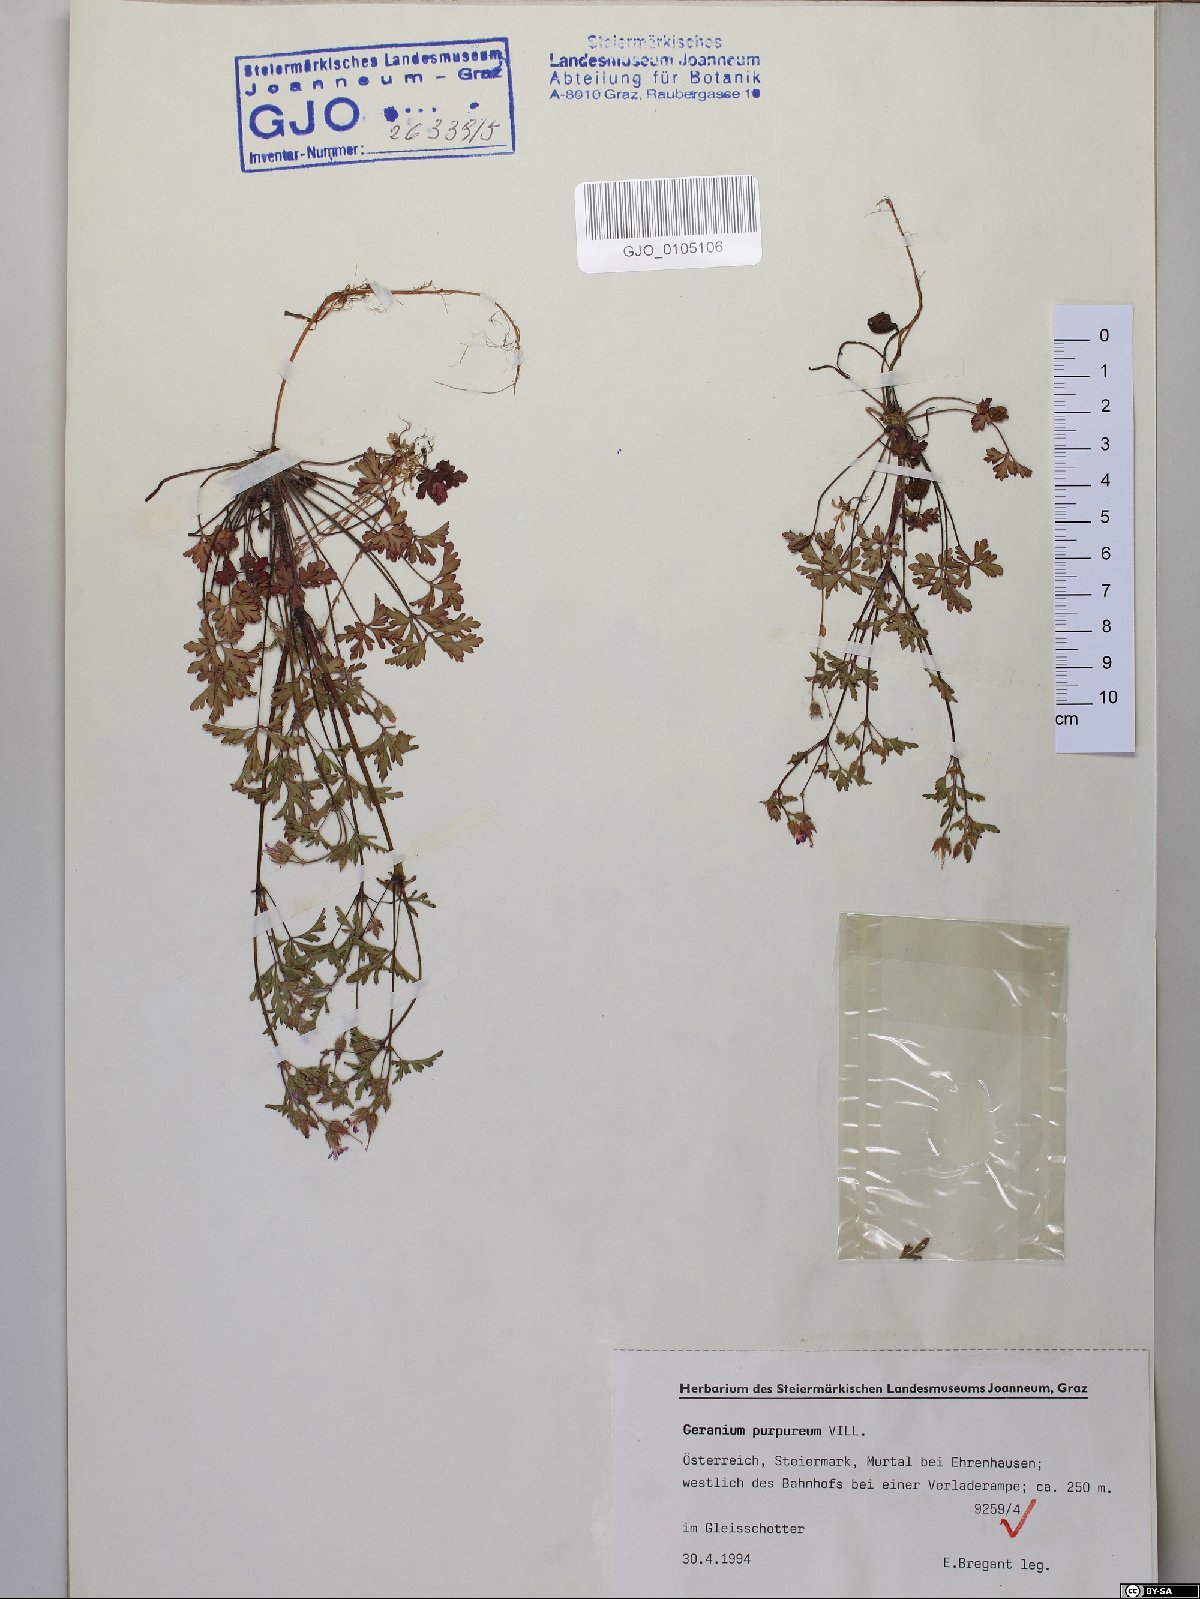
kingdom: Plantae
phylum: Tracheophyta
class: Magnoliopsida
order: Geraniales
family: Geraniaceae
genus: Geranium
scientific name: Geranium purpureum
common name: Little-robin
